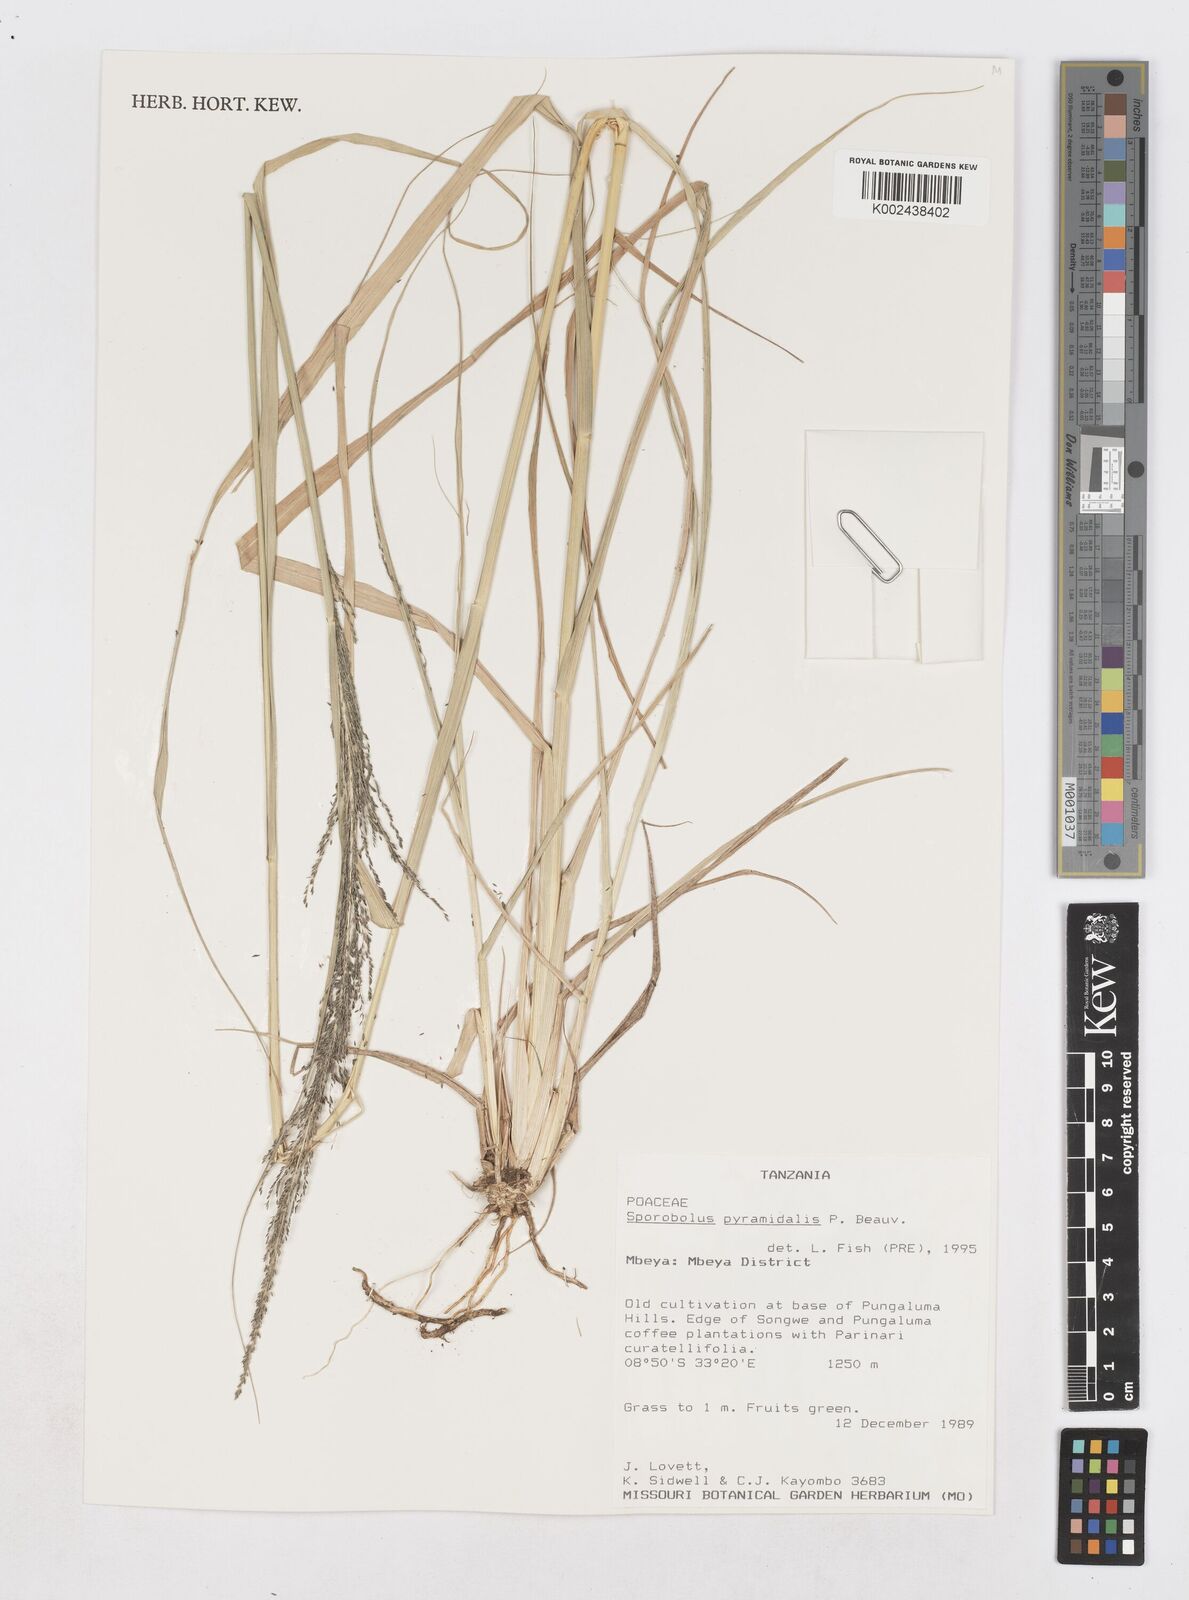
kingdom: Plantae
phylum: Tracheophyta
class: Liliopsida
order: Poales
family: Poaceae
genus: Sporobolus
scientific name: Sporobolus pyramidalis
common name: West indian dropseed
